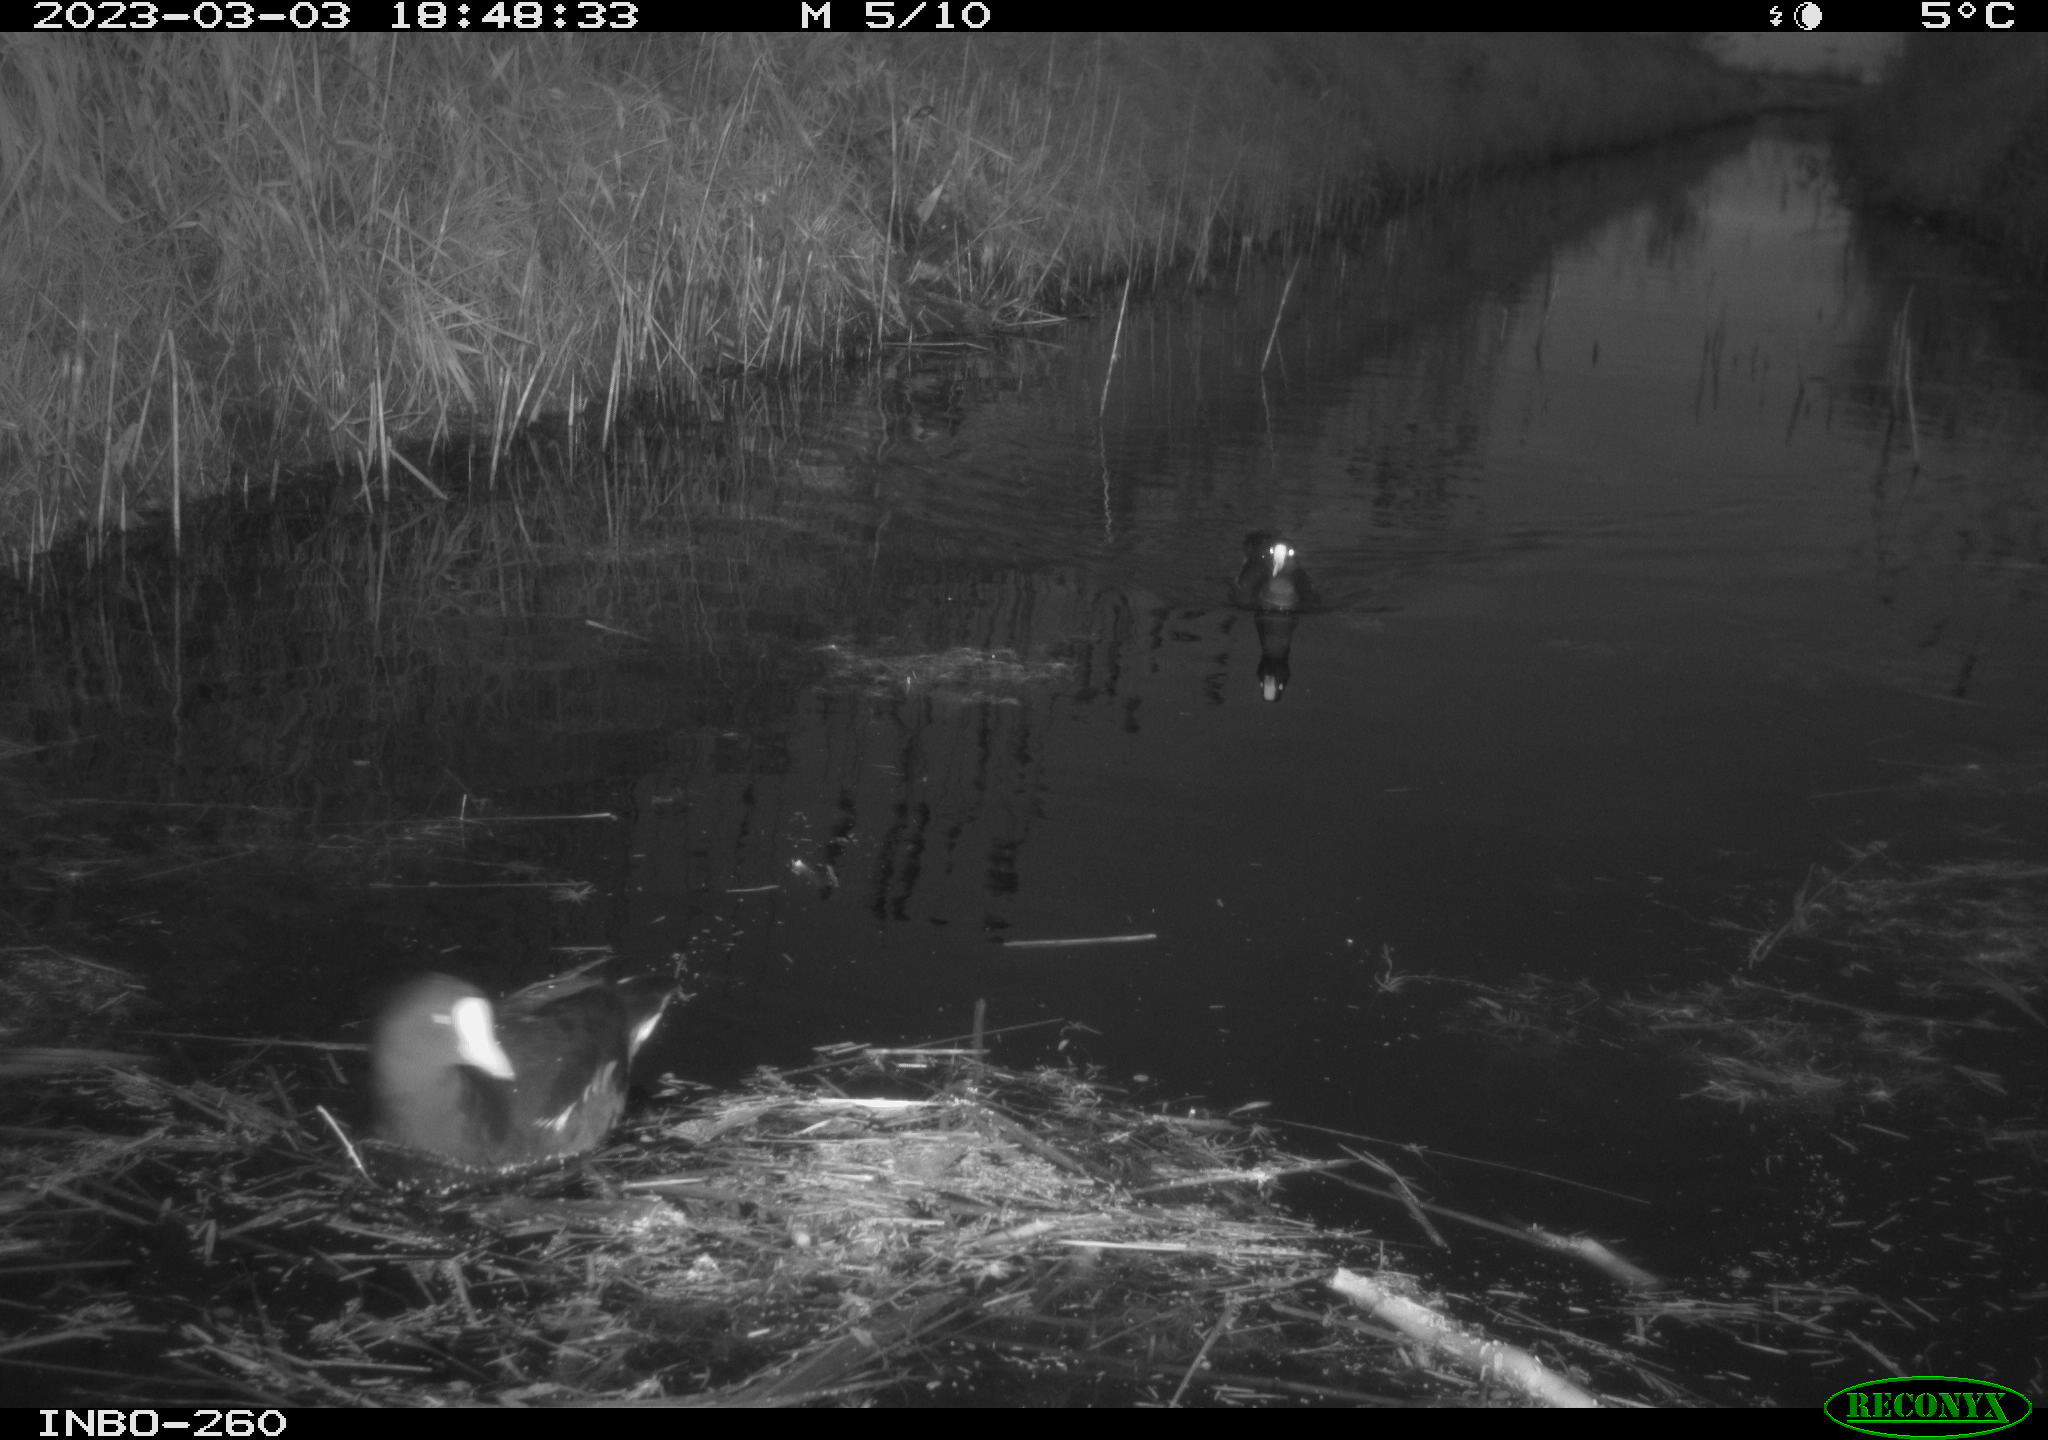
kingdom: Animalia
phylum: Chordata
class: Aves
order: Gruiformes
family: Rallidae
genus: Gallinula
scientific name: Gallinula chloropus
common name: Common moorhen
